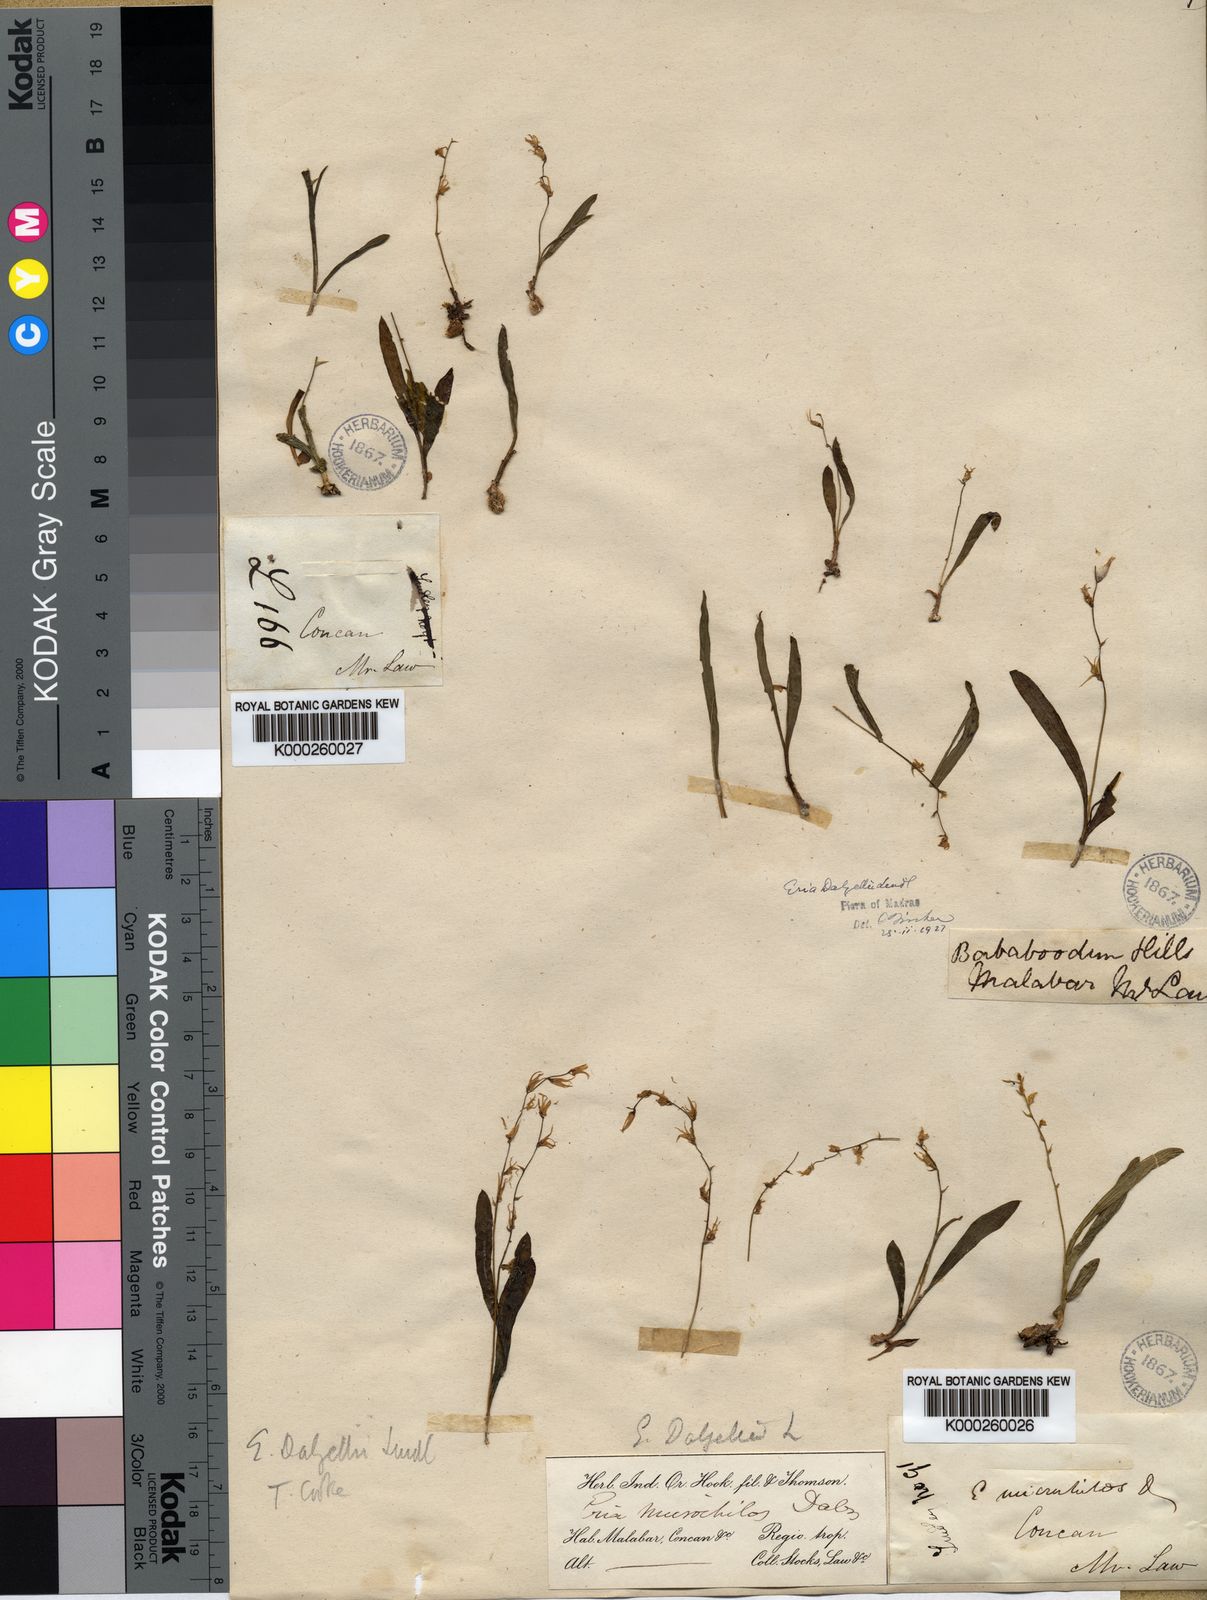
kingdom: Plantae
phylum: Tracheophyta
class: Liliopsida
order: Asparagales
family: Orchidaceae
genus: Porpax
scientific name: Porpax filiformis
